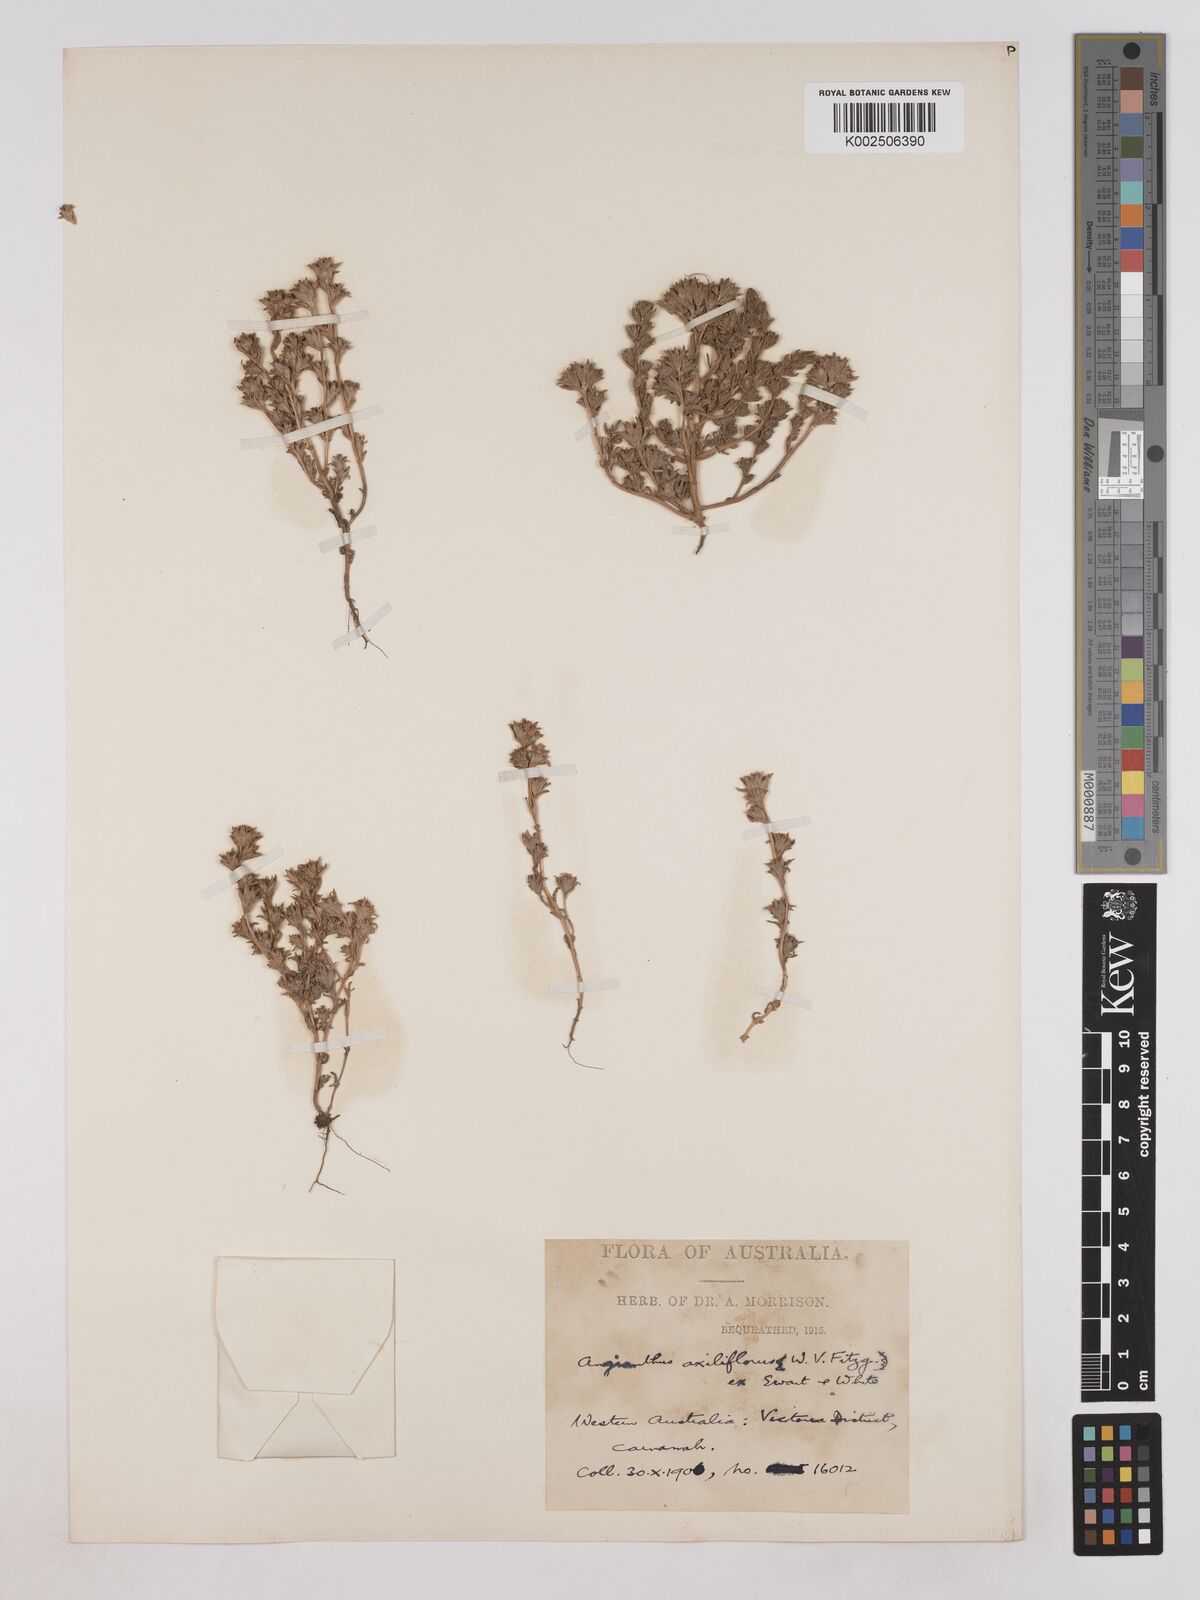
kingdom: Plantae
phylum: Tracheophyta
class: Magnoliopsida
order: Asterales
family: Asteraceae
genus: Fitzwillia
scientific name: Fitzwillia axilliflora
